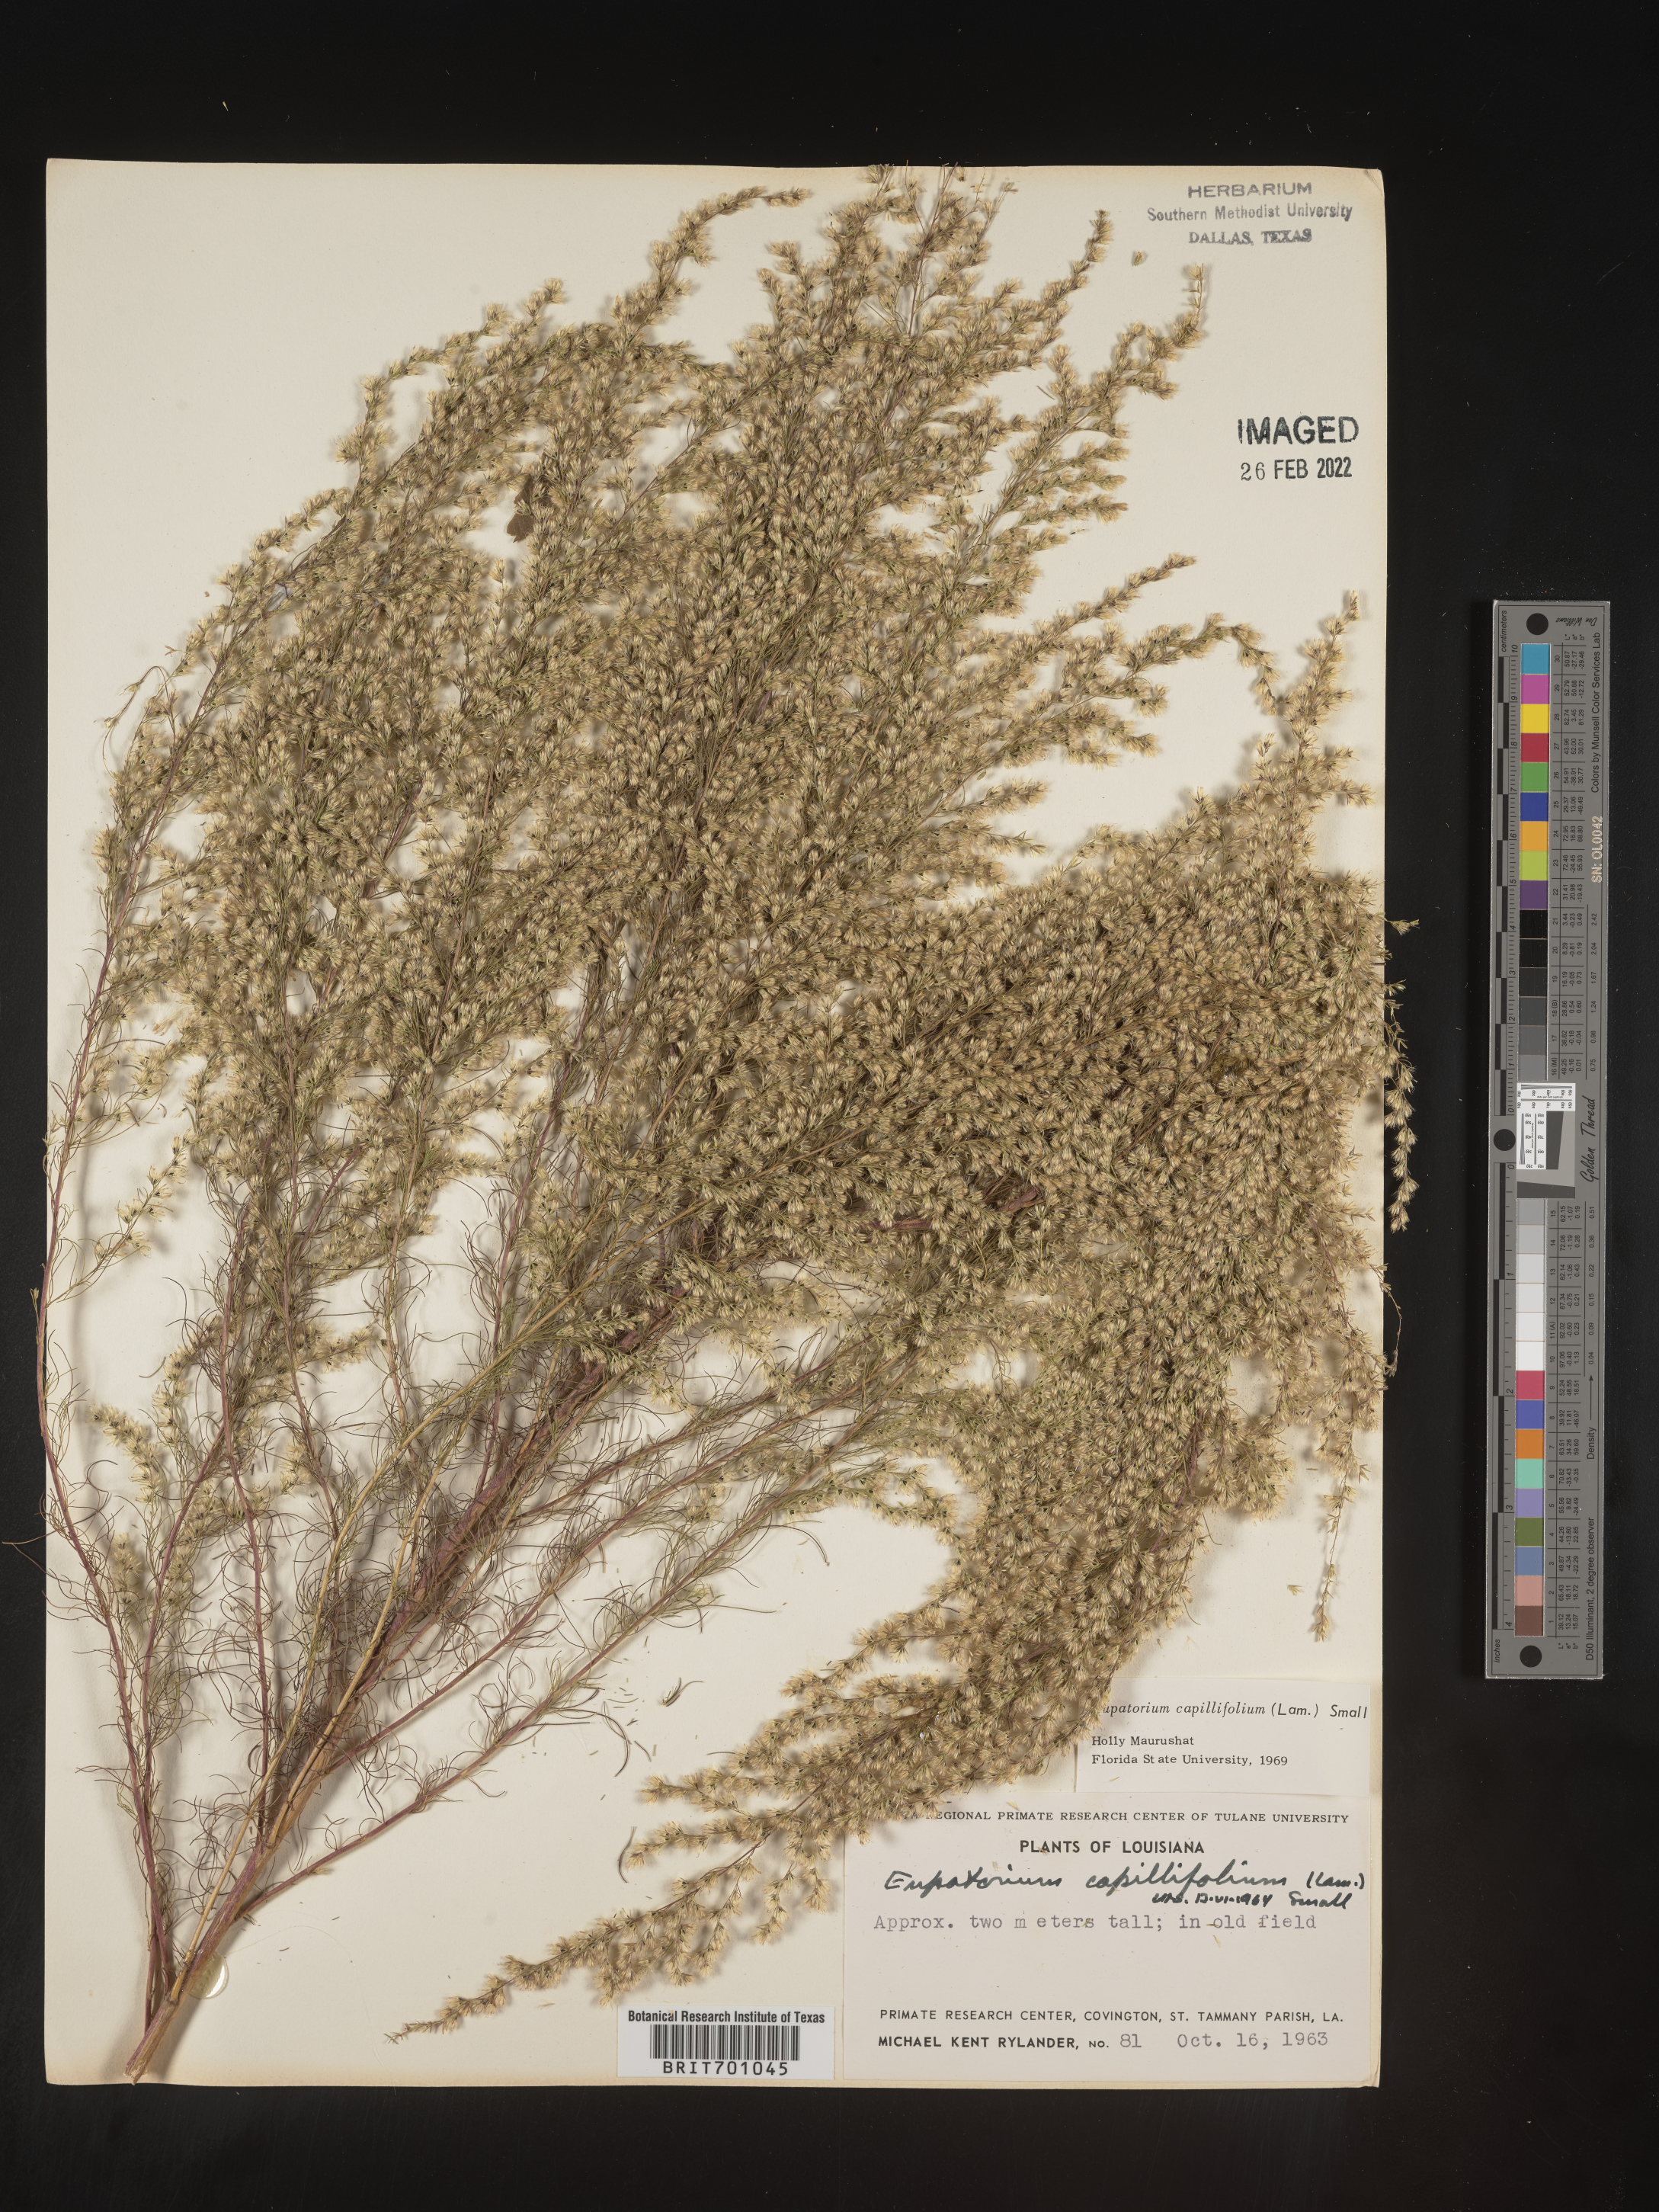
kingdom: Plantae
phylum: Tracheophyta
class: Magnoliopsida
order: Asterales
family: Asteraceae
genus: Eupatorium
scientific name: Eupatorium capillifolium
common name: Dog-fennel
